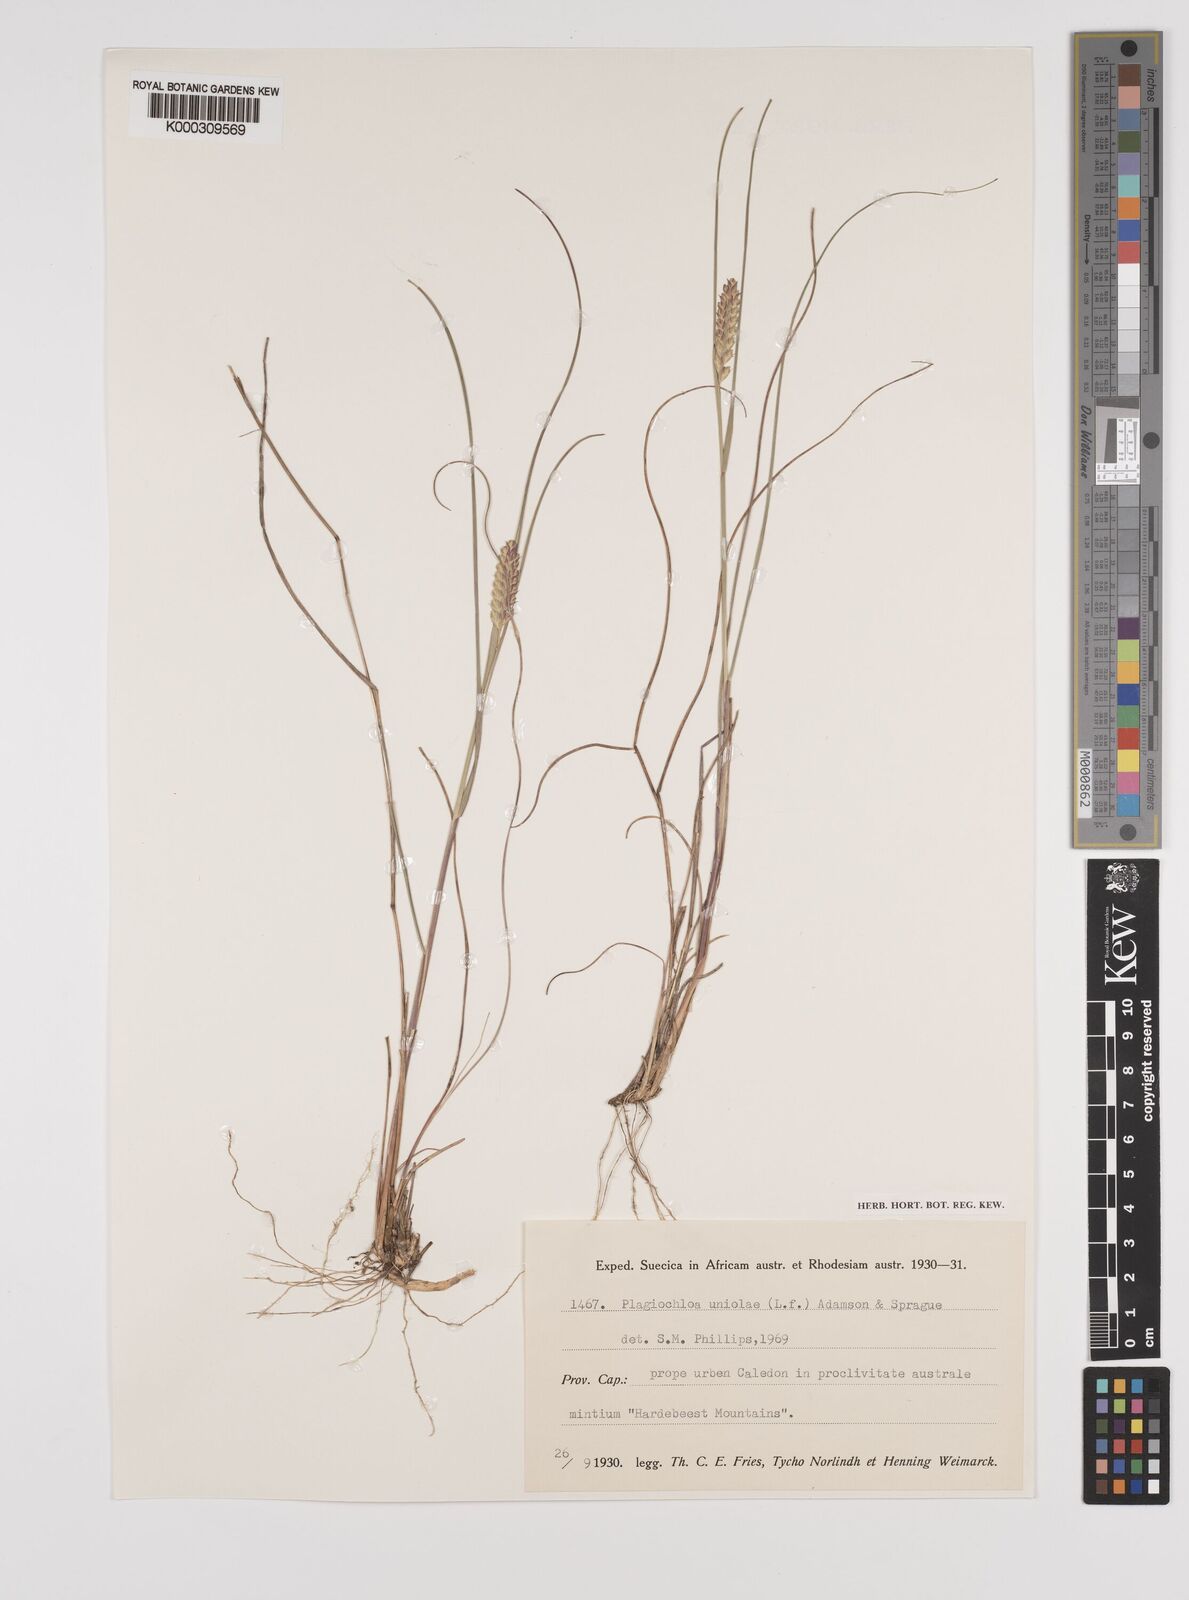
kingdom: Plantae
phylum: Tracheophyta
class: Liliopsida
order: Poales
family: Poaceae
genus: Tribolium
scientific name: Tribolium amplexum
